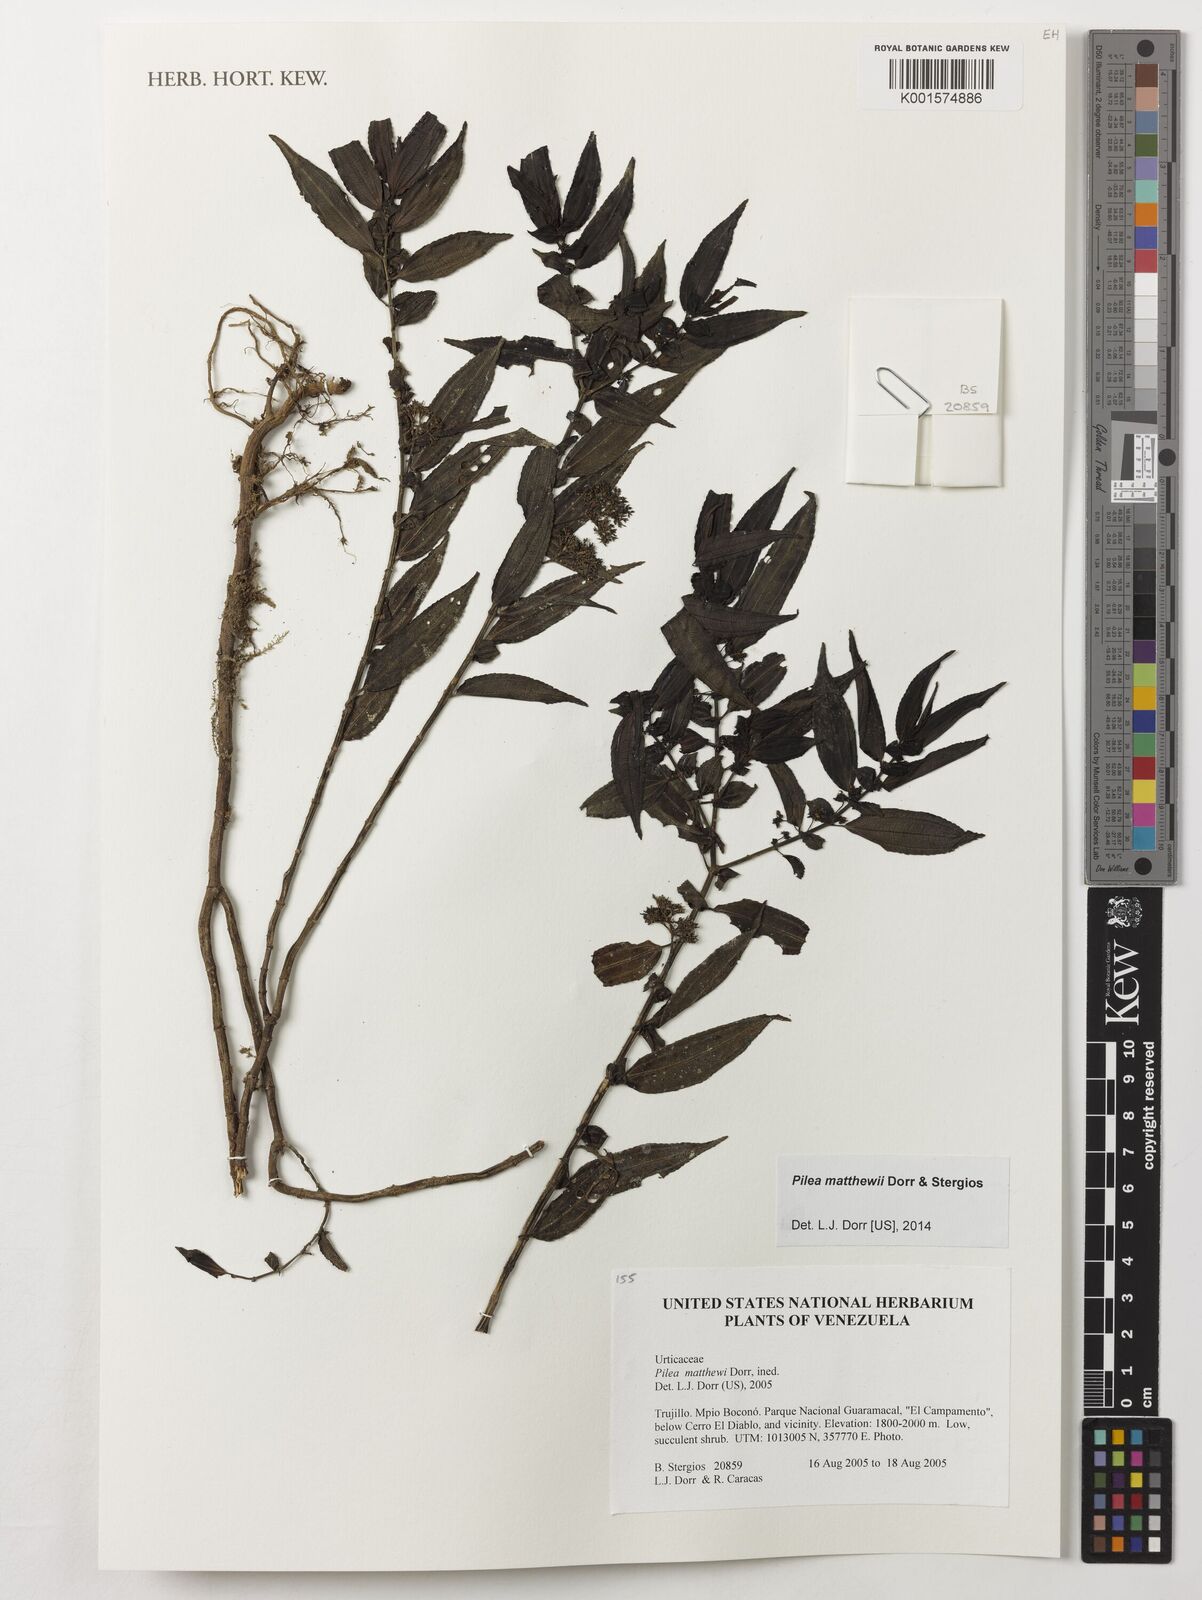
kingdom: Plantae
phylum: Tracheophyta
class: Magnoliopsida
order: Rosales
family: Urticaceae
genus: Pilea
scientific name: Pilea matthewii
